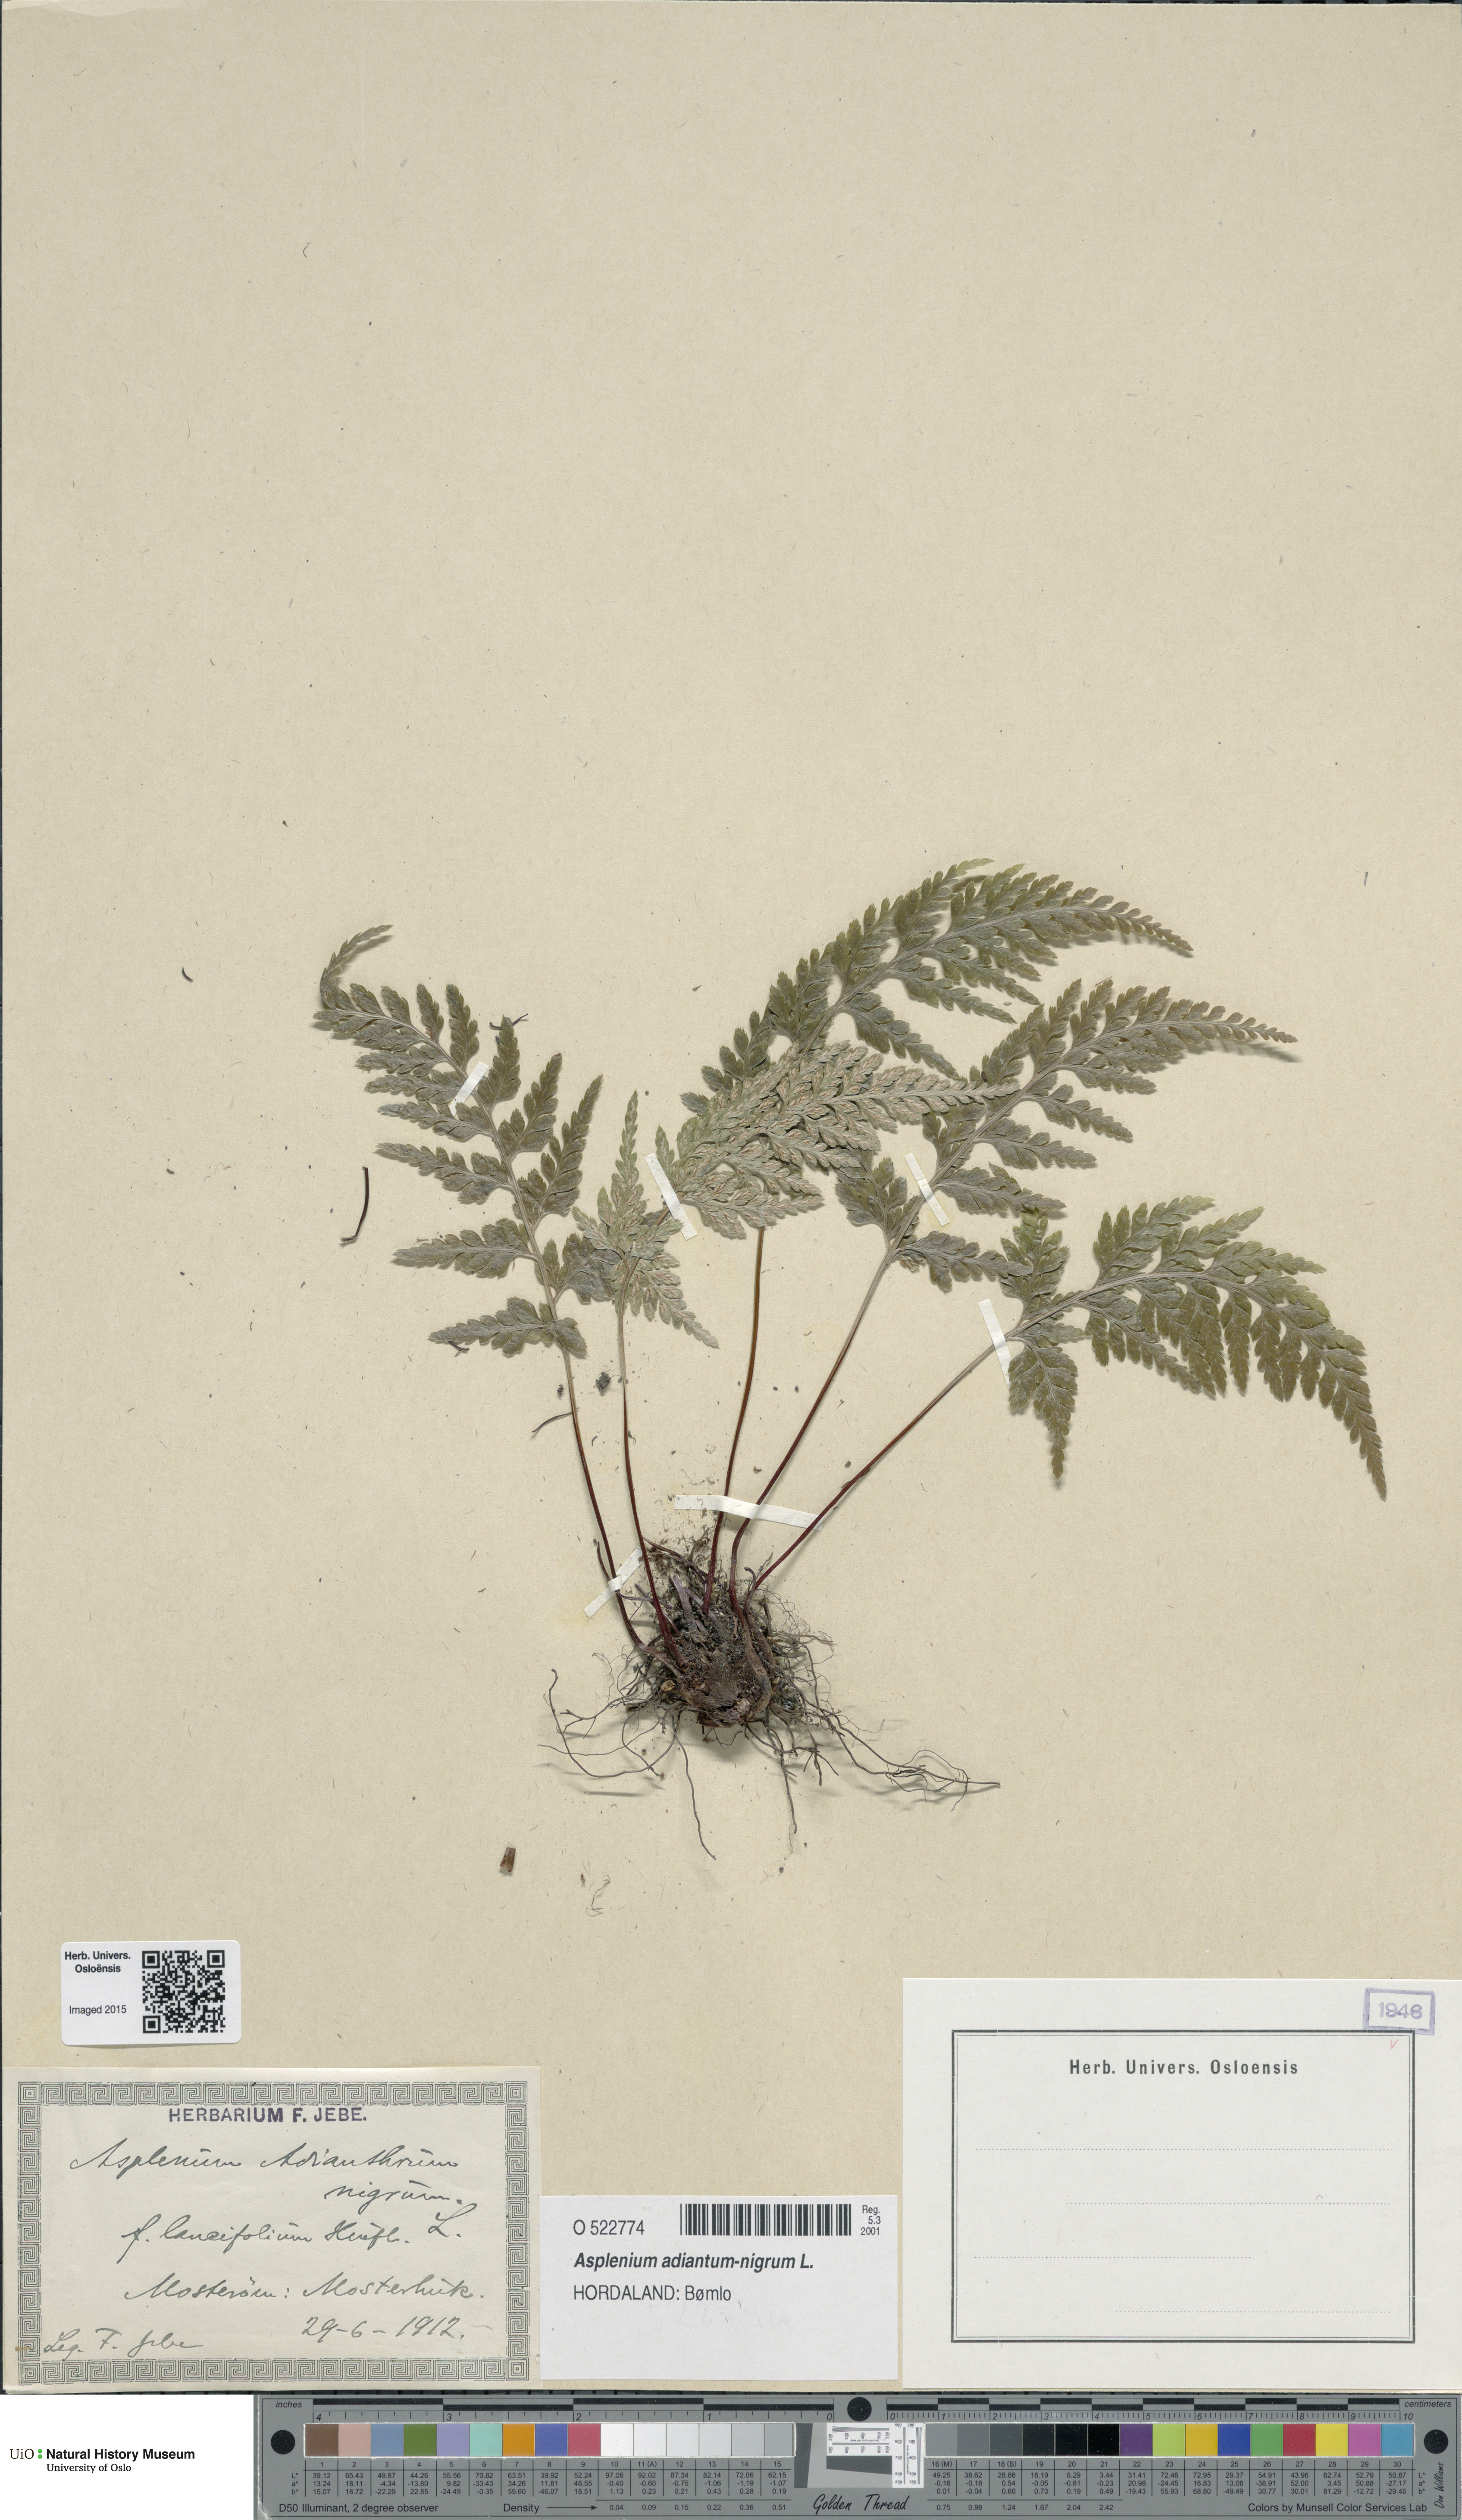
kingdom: Plantae
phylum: Tracheophyta
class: Polypodiopsida
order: Polypodiales
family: Aspleniaceae
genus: Asplenium
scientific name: Asplenium adiantum-nigrum
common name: Black spleenwort
